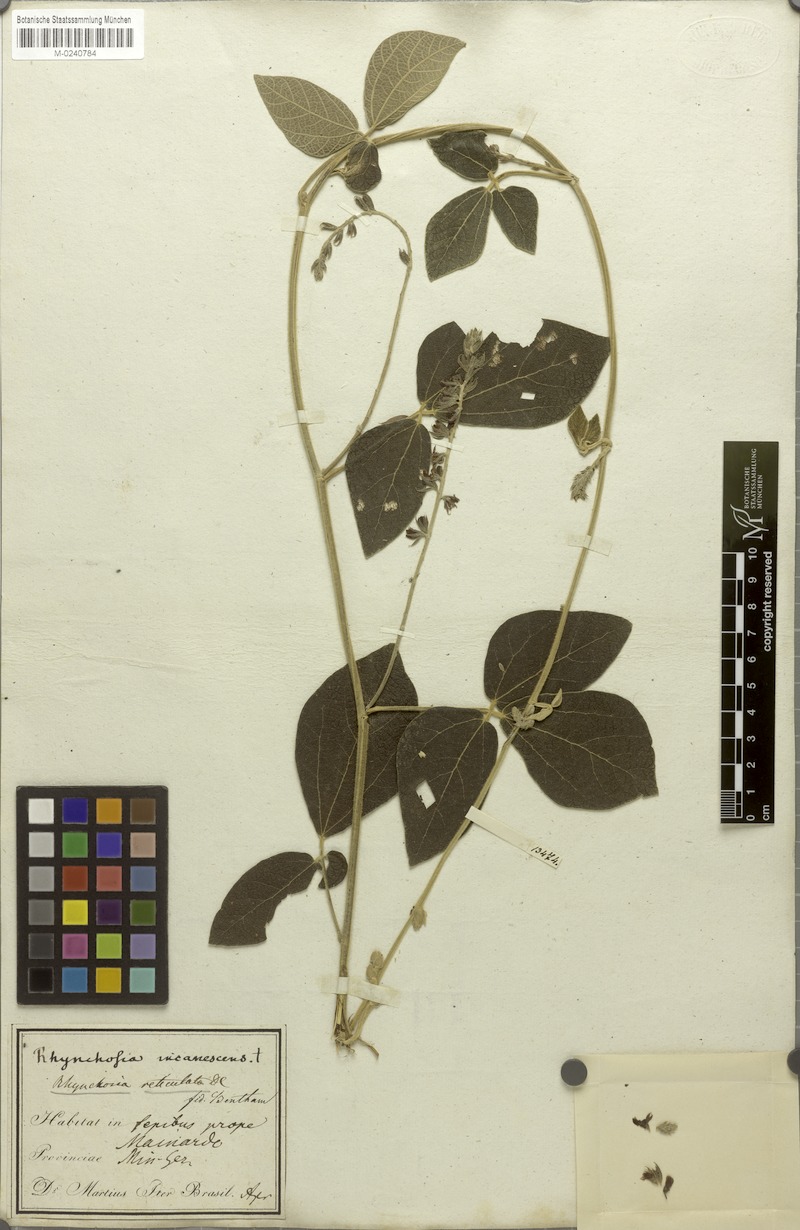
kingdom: Plantae
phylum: Tracheophyta
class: Magnoliopsida
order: Fabales
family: Fabaceae
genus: Rhynchosia
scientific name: Rhynchosia reticulata
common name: Pea withe
